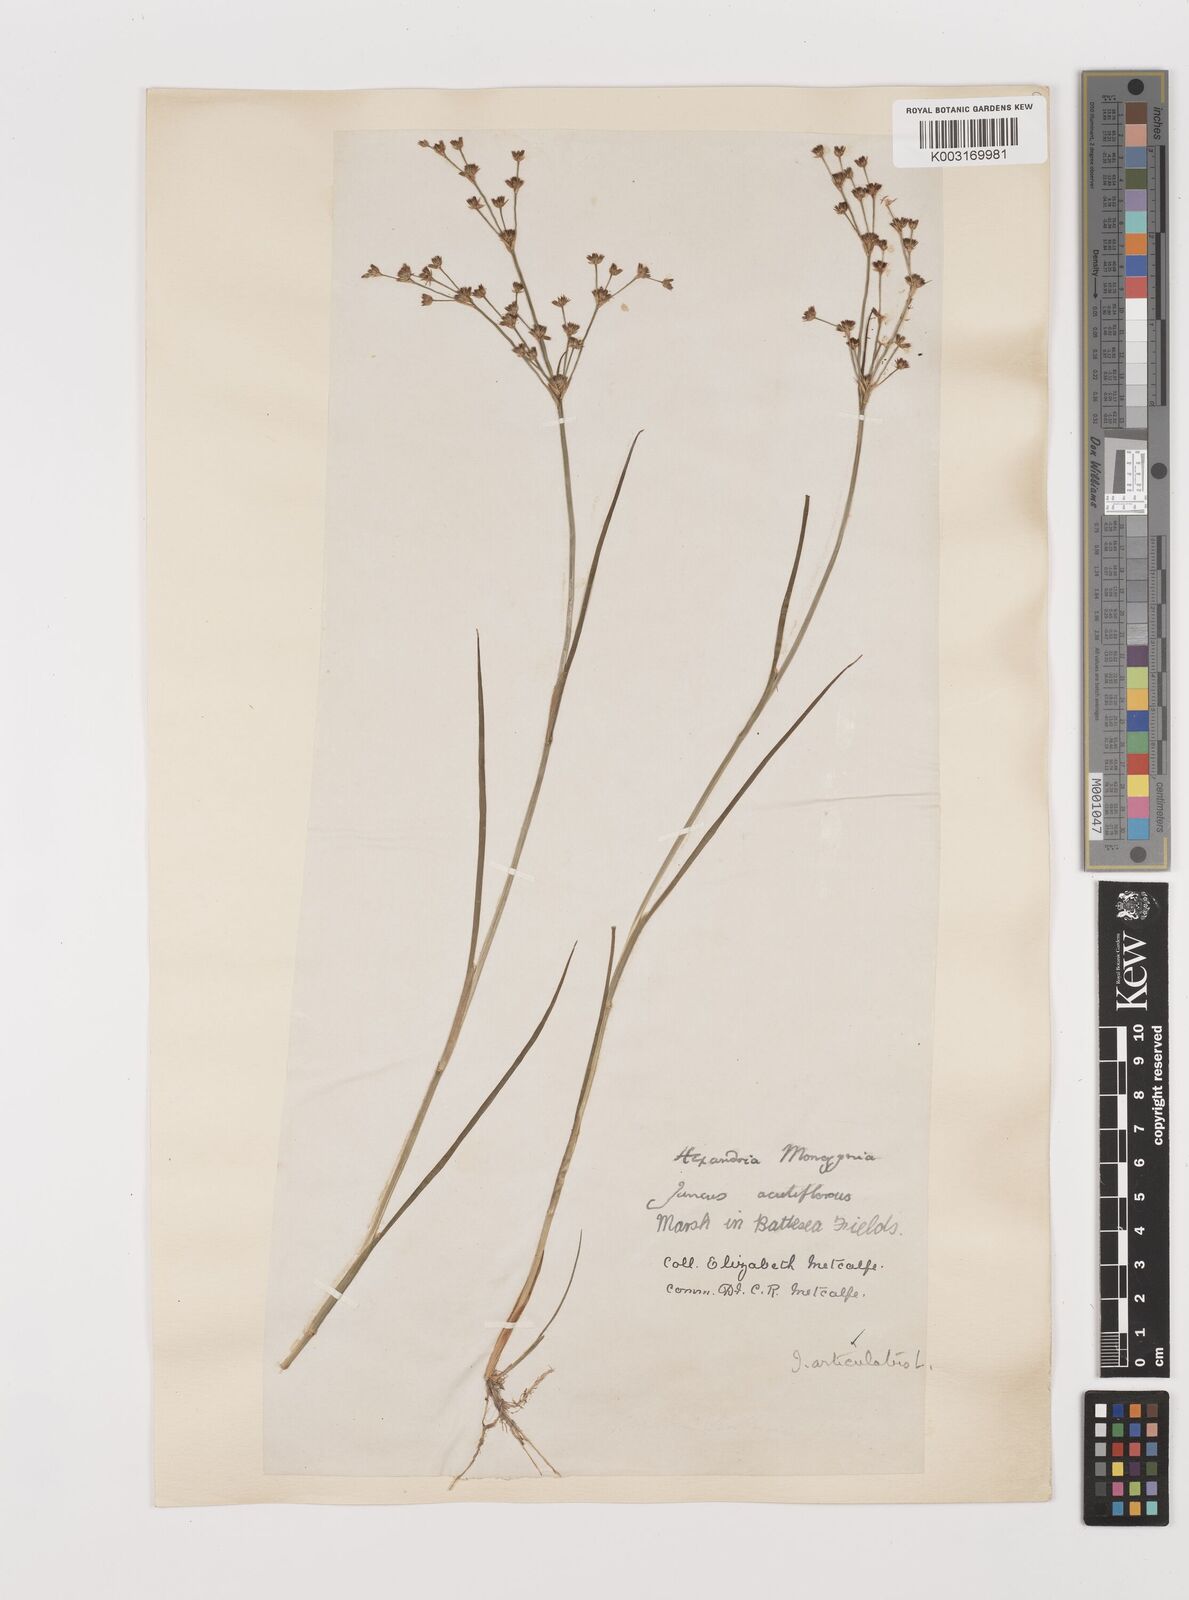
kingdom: Plantae
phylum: Tracheophyta
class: Liliopsida
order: Poales
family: Juncaceae
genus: Juncus
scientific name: Juncus articulatus
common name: Jointed rush
